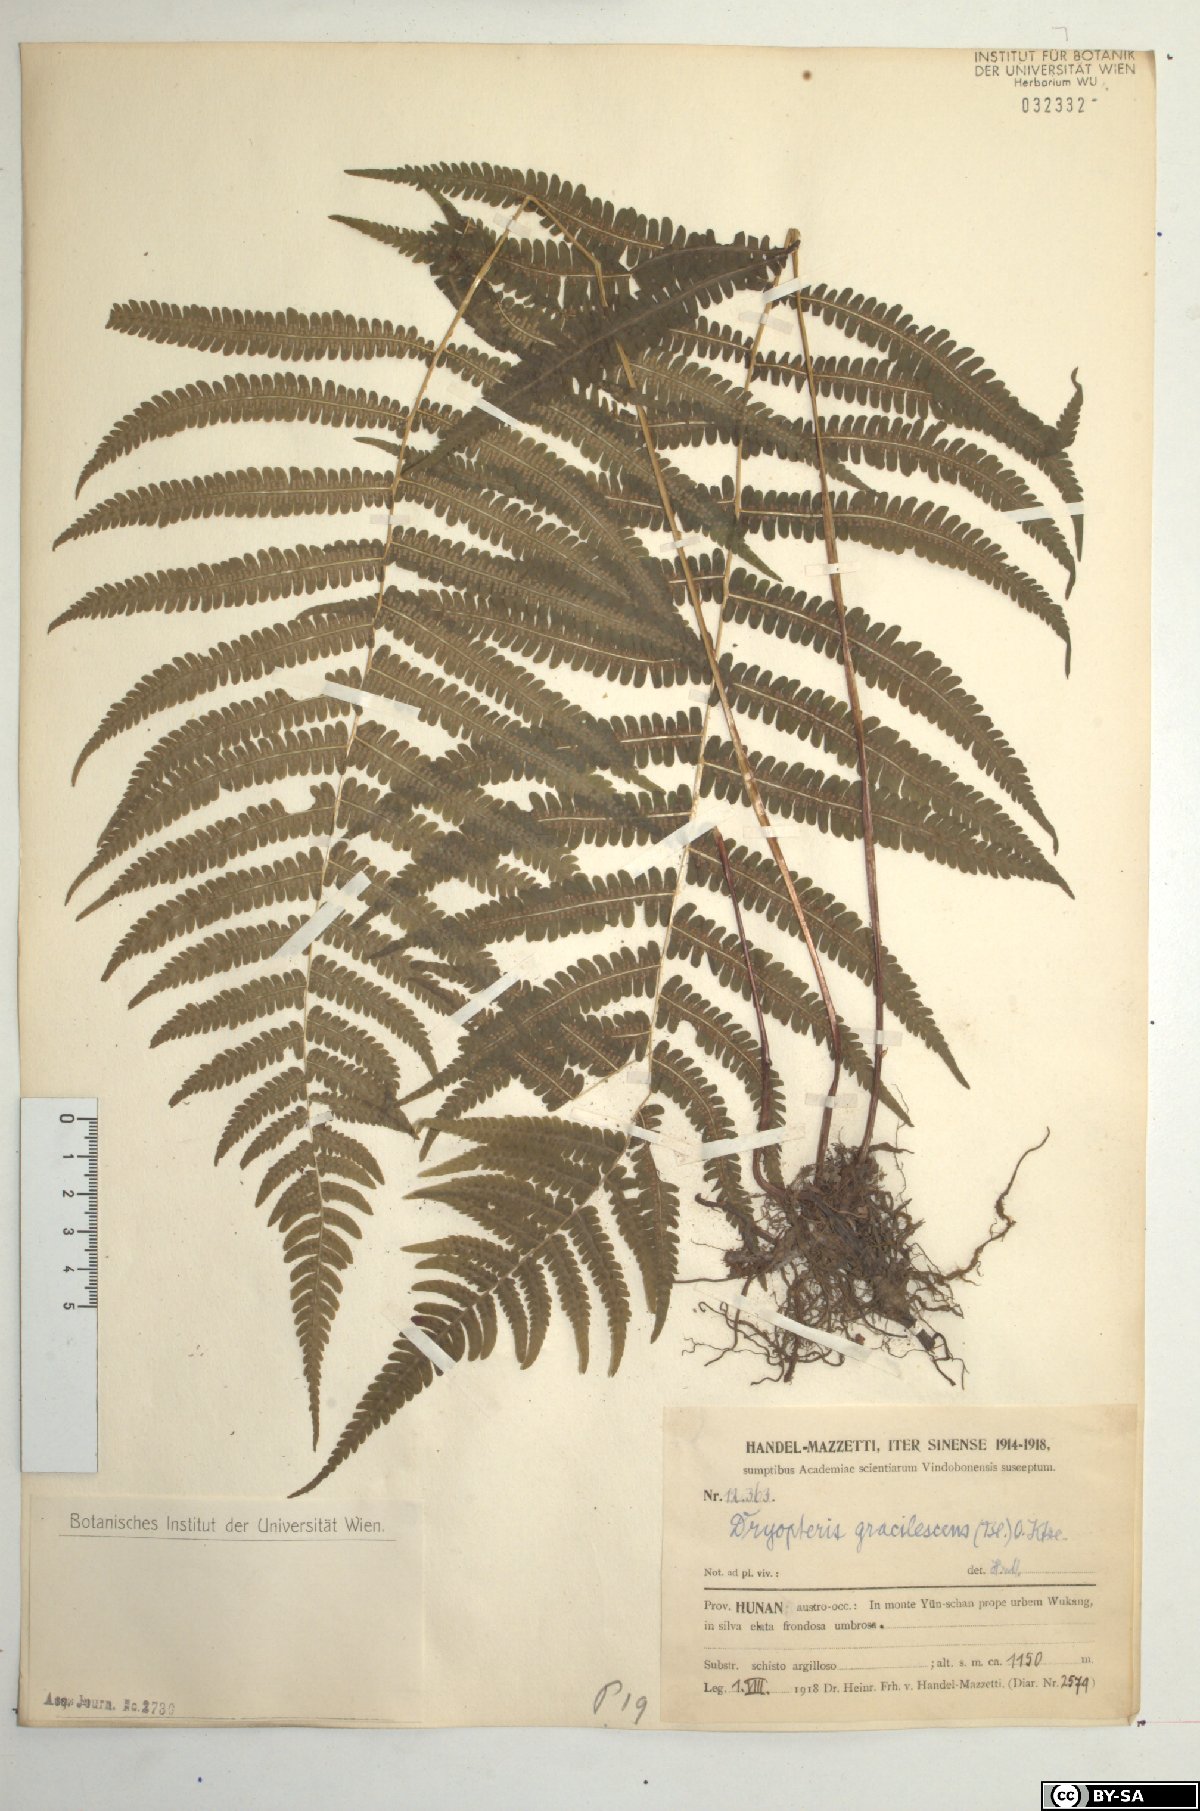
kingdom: Plantae
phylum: Tracheophyta
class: Polypodiopsida
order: Polypodiales
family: Thelypteridaceae
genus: Metathelypteris
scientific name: Metathelypteris gracilescens
